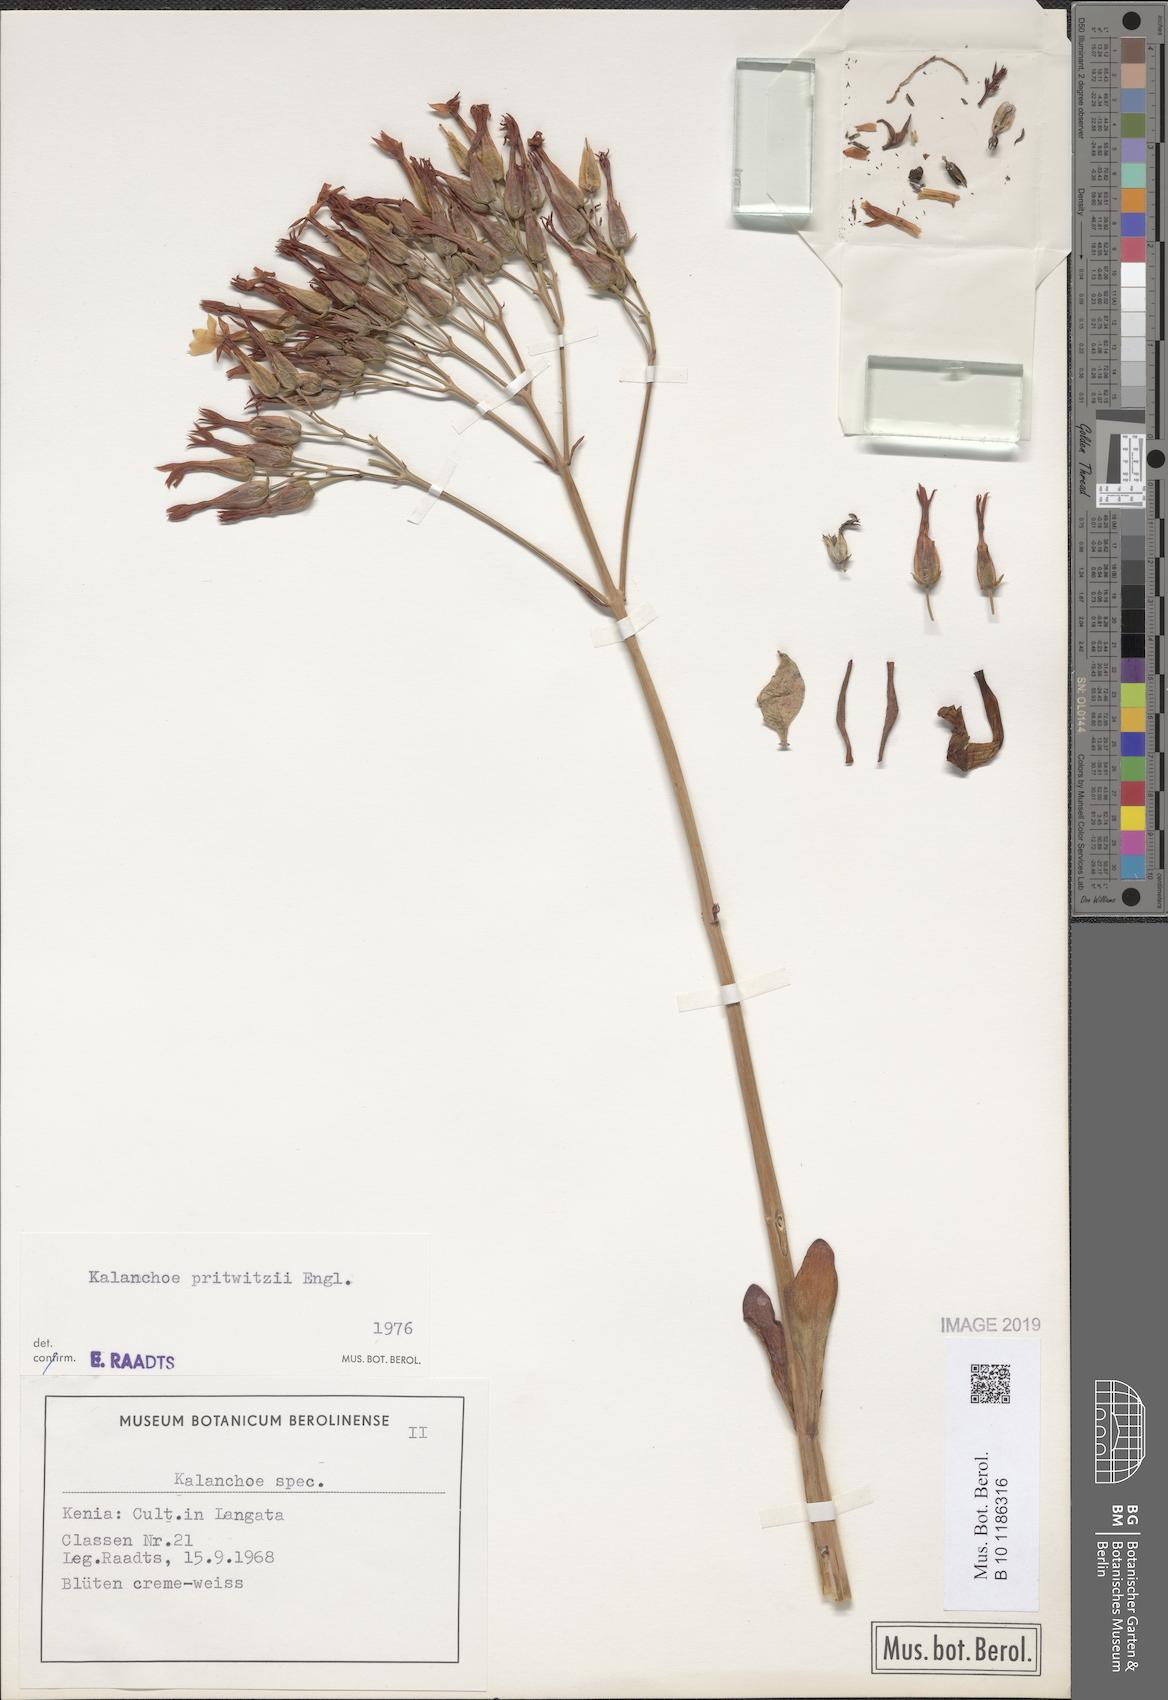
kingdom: Plantae
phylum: Tracheophyta
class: Magnoliopsida
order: Saxifragales
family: Crassulaceae
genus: Kalanchoe
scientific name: Kalanchoe prittwitzii
